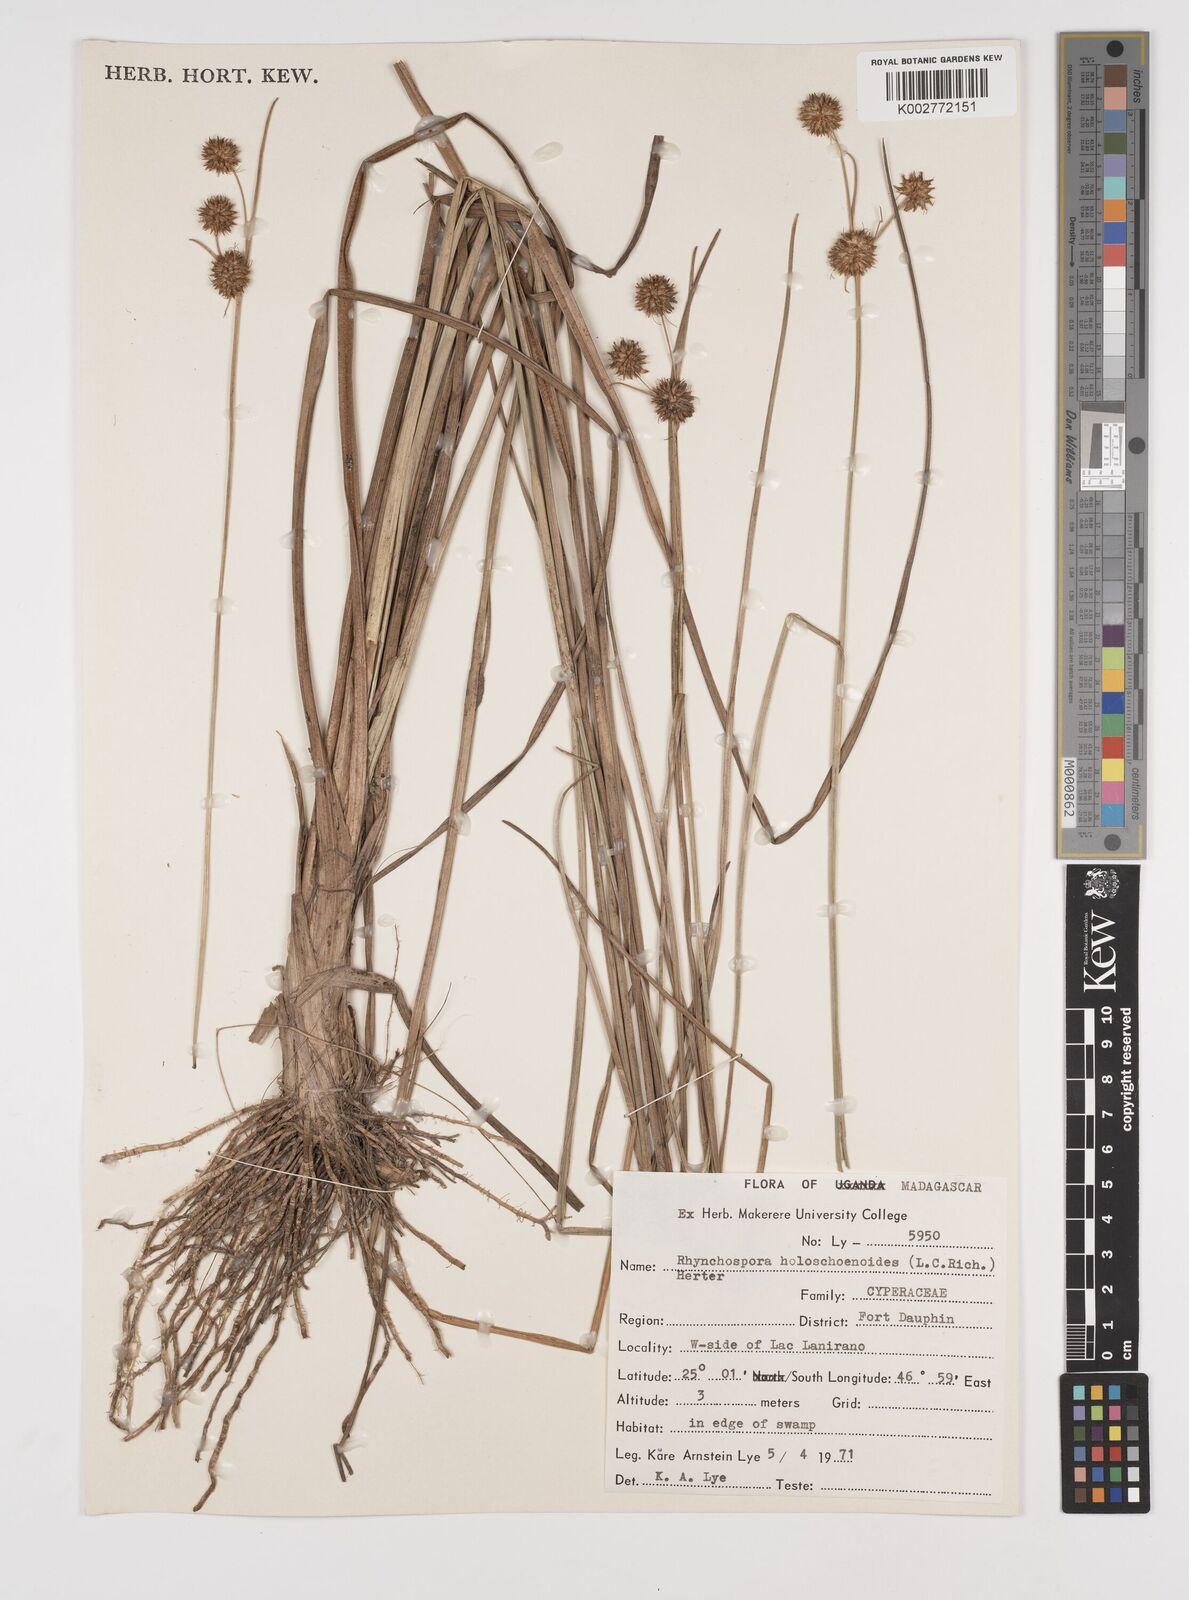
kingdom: Plantae
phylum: Tracheophyta
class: Liliopsida
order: Poales
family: Cyperaceae
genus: Rhynchospora
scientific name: Rhynchospora holoschoenoides
